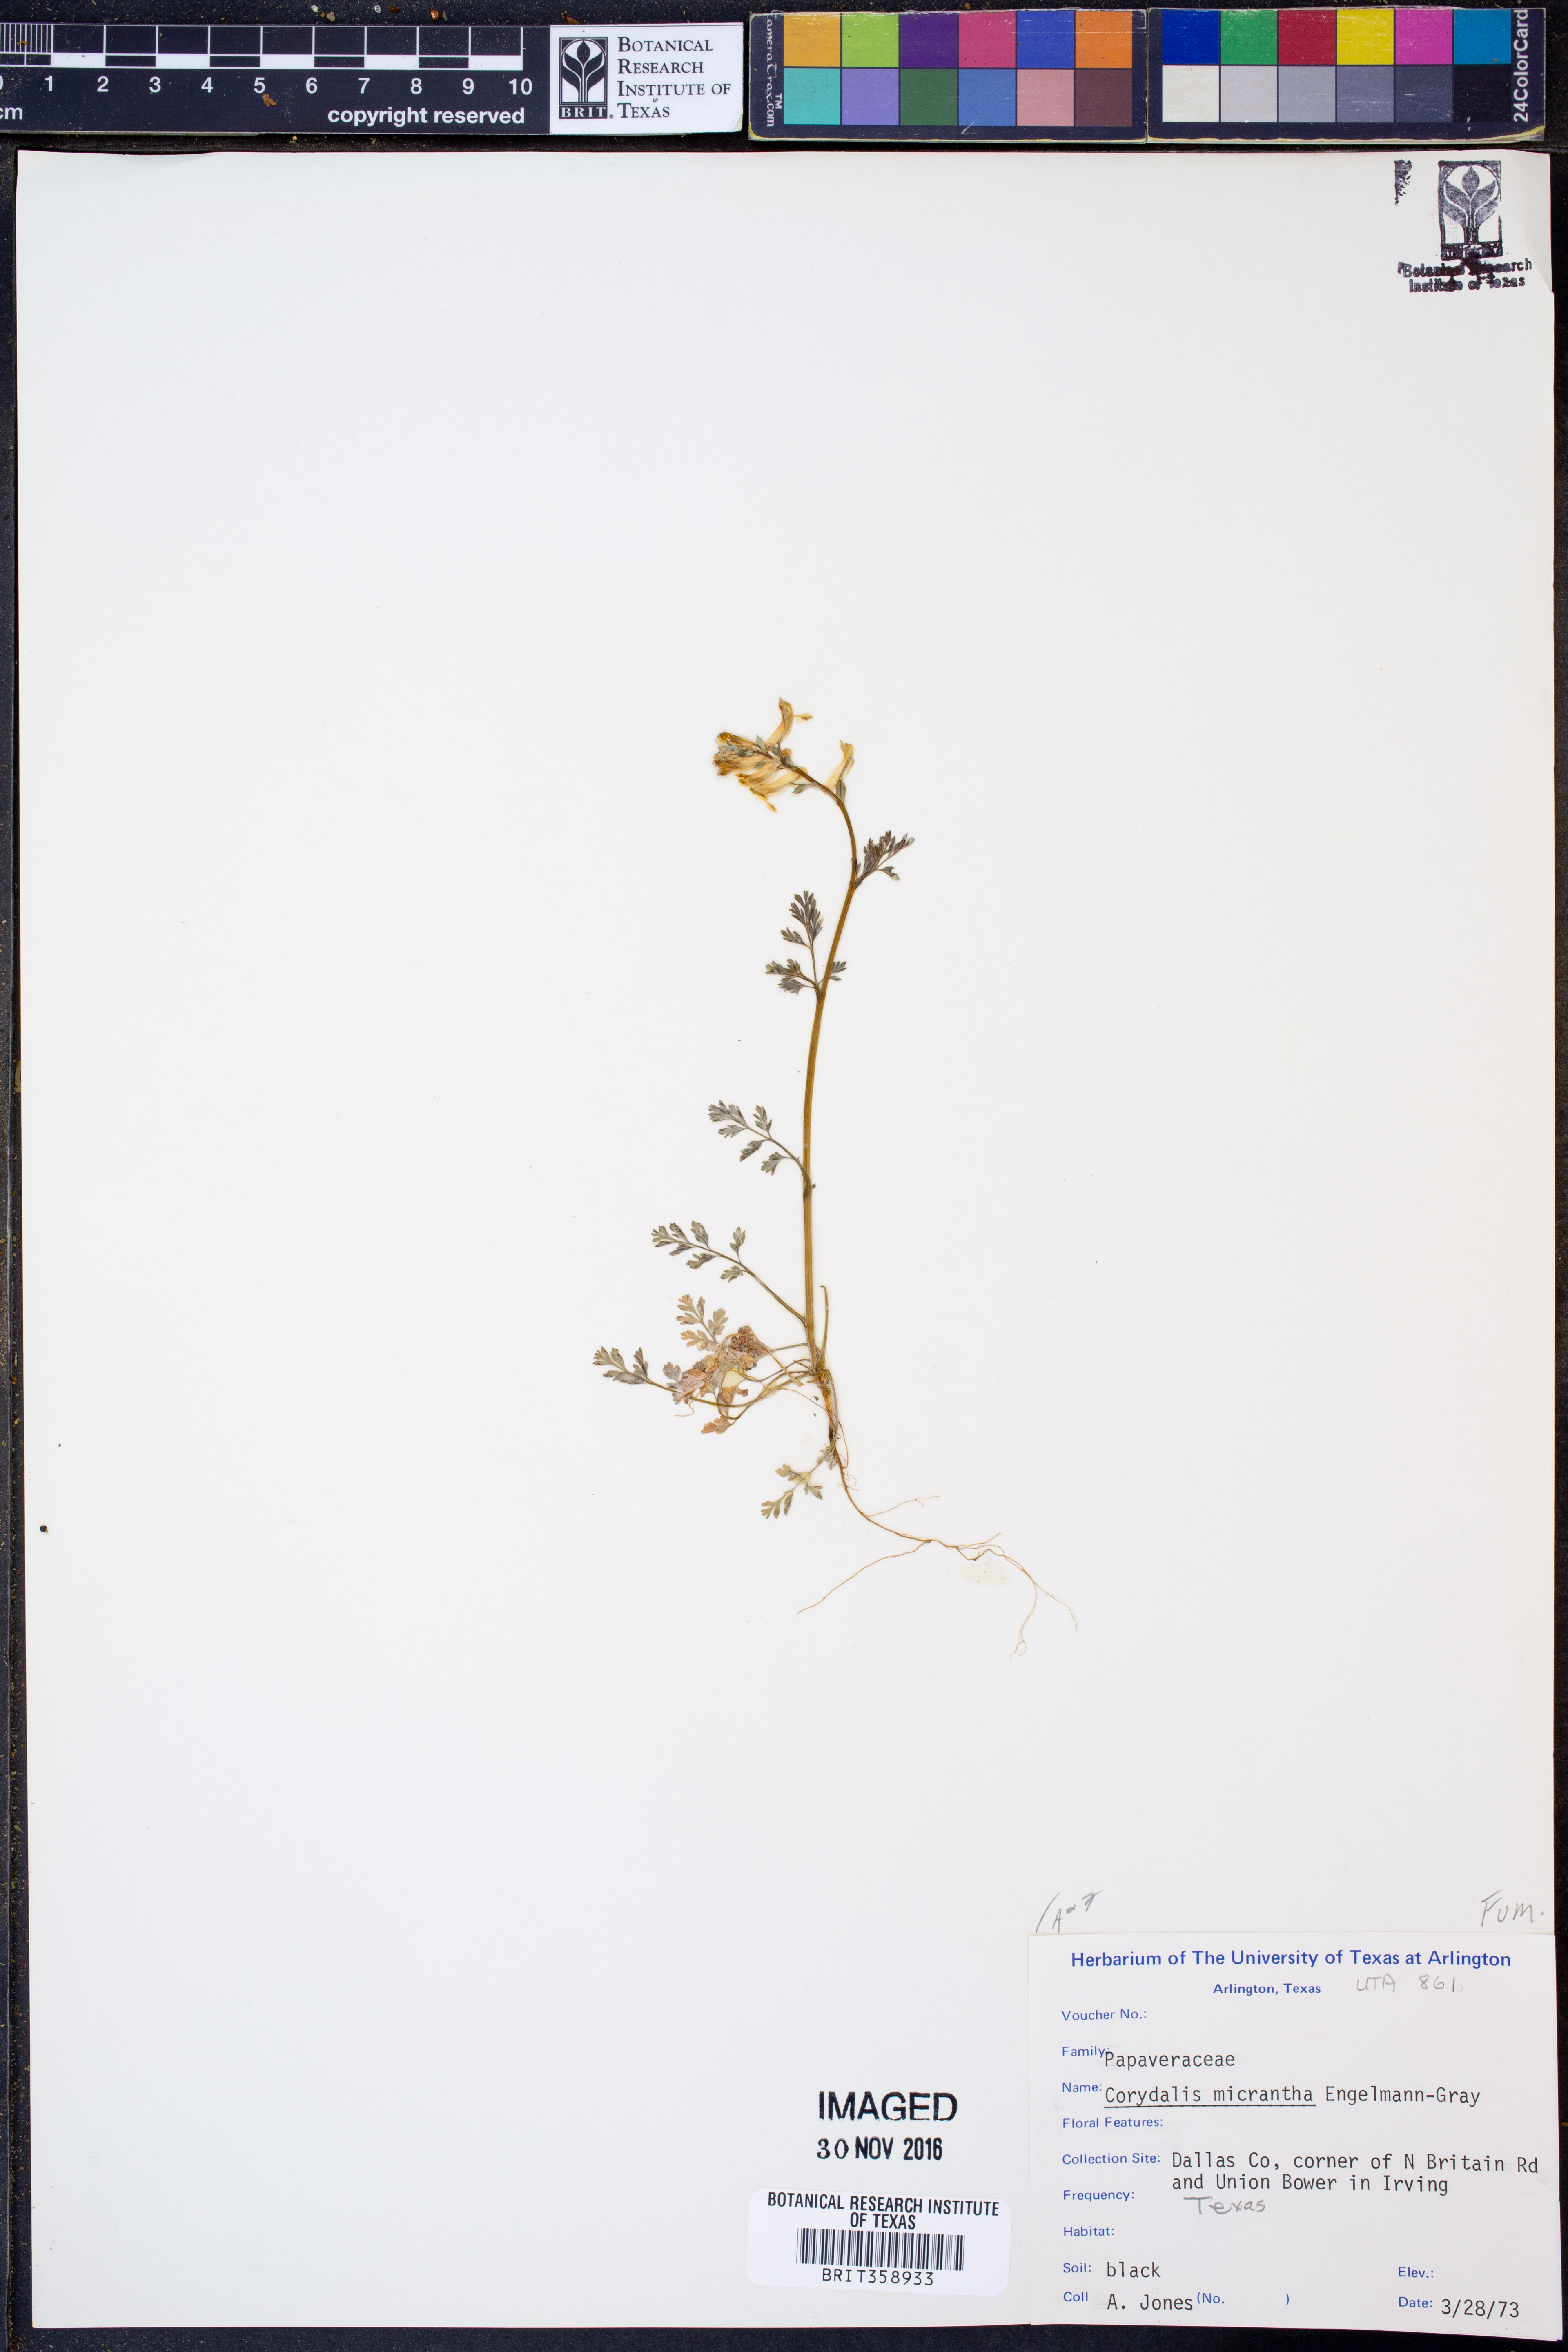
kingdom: Plantae
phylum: Tracheophyta
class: Magnoliopsida
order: Ranunculales
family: Papaveraceae
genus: Corydalis
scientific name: Corydalis micrantha
